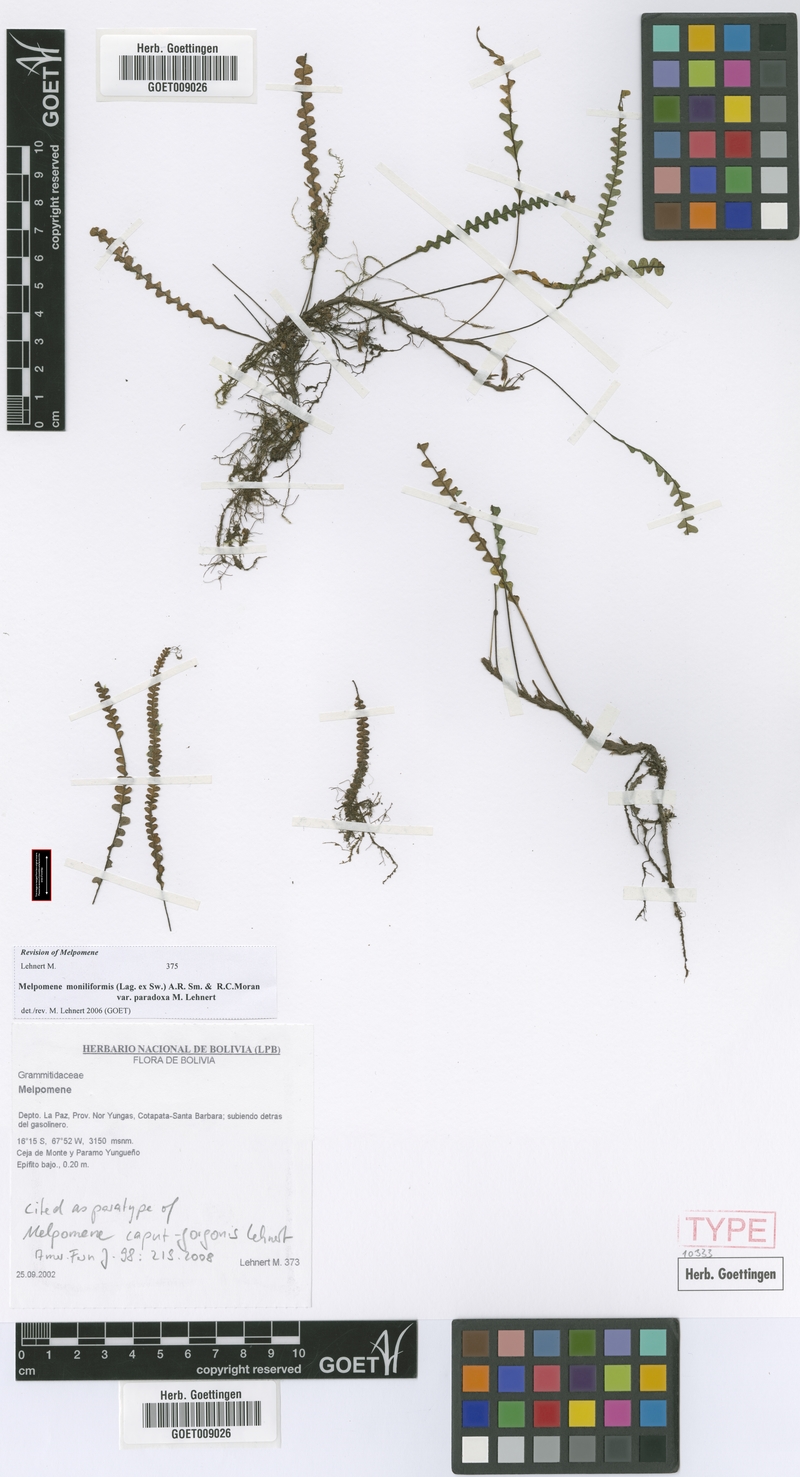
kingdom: Plantae
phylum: Tracheophyta
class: Polypodiopsida
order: Polypodiales
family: Polypodiaceae
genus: Melpomene
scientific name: Melpomene caput-gorgonis
